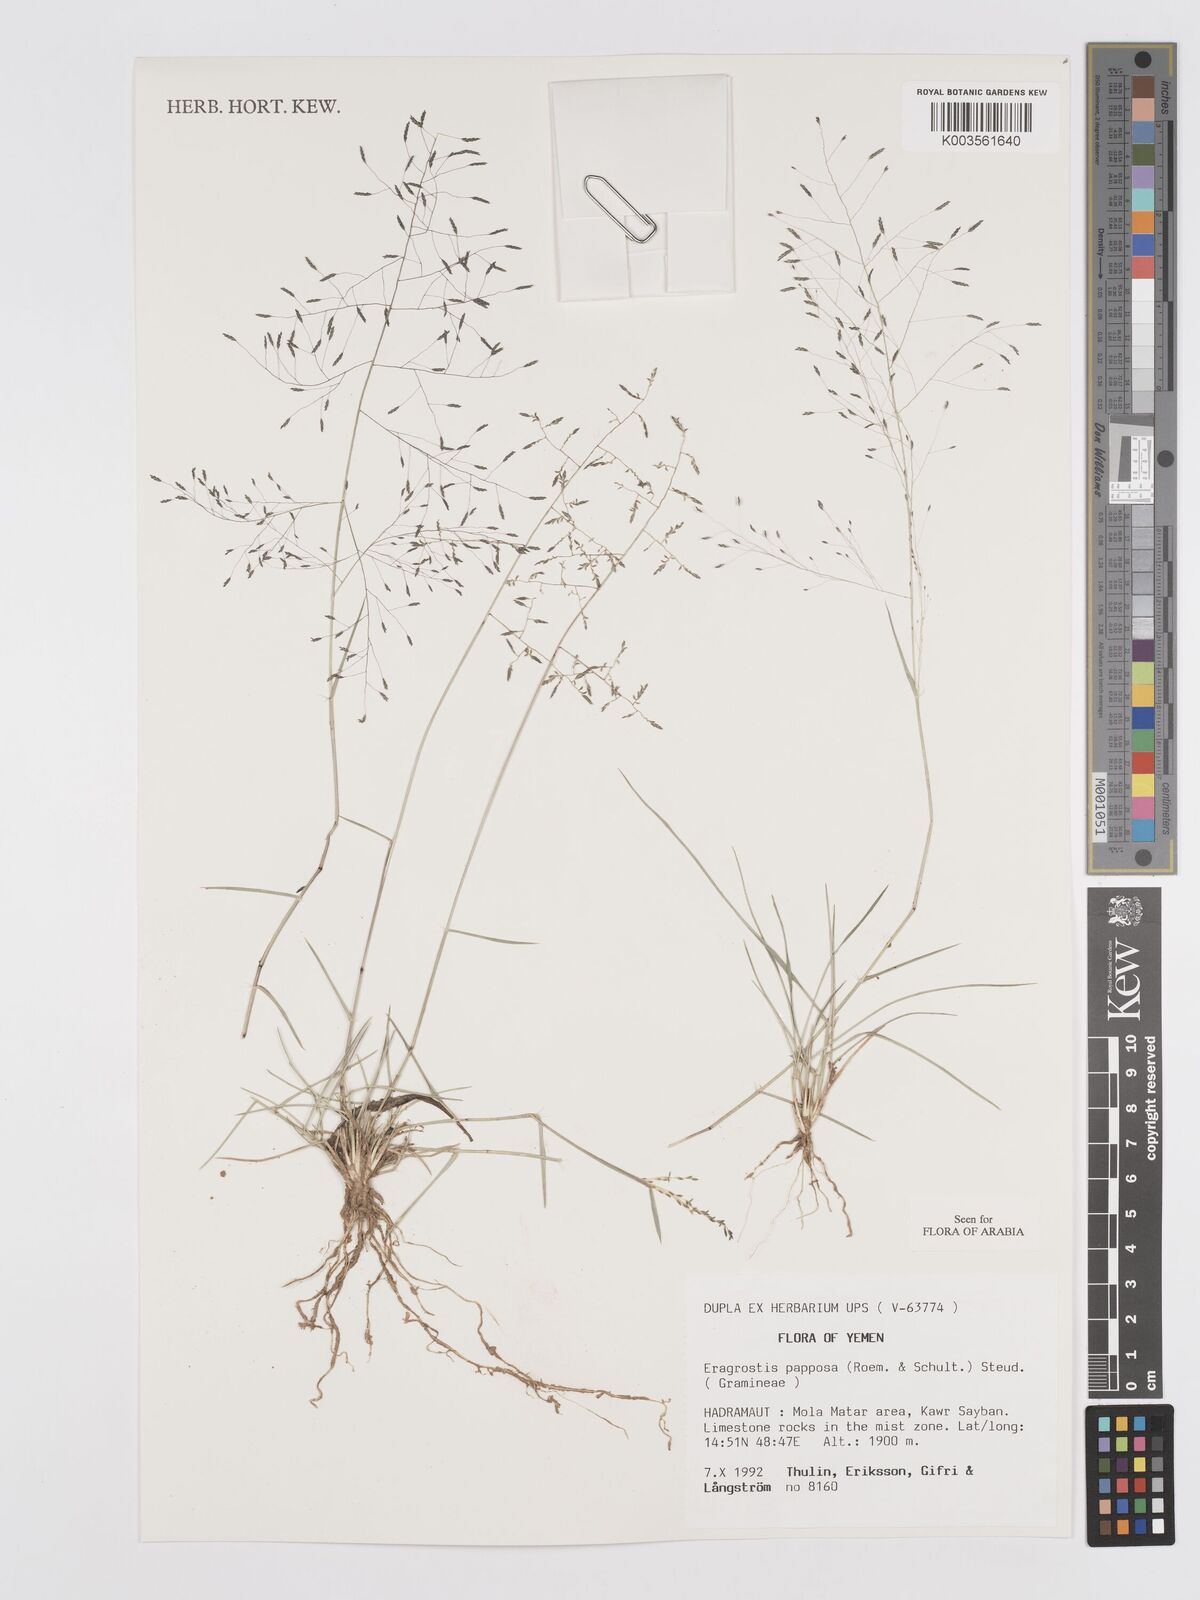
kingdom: Plantae
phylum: Tracheophyta
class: Liliopsida
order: Poales
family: Poaceae
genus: Eragrostis
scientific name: Eragrostis papposa
